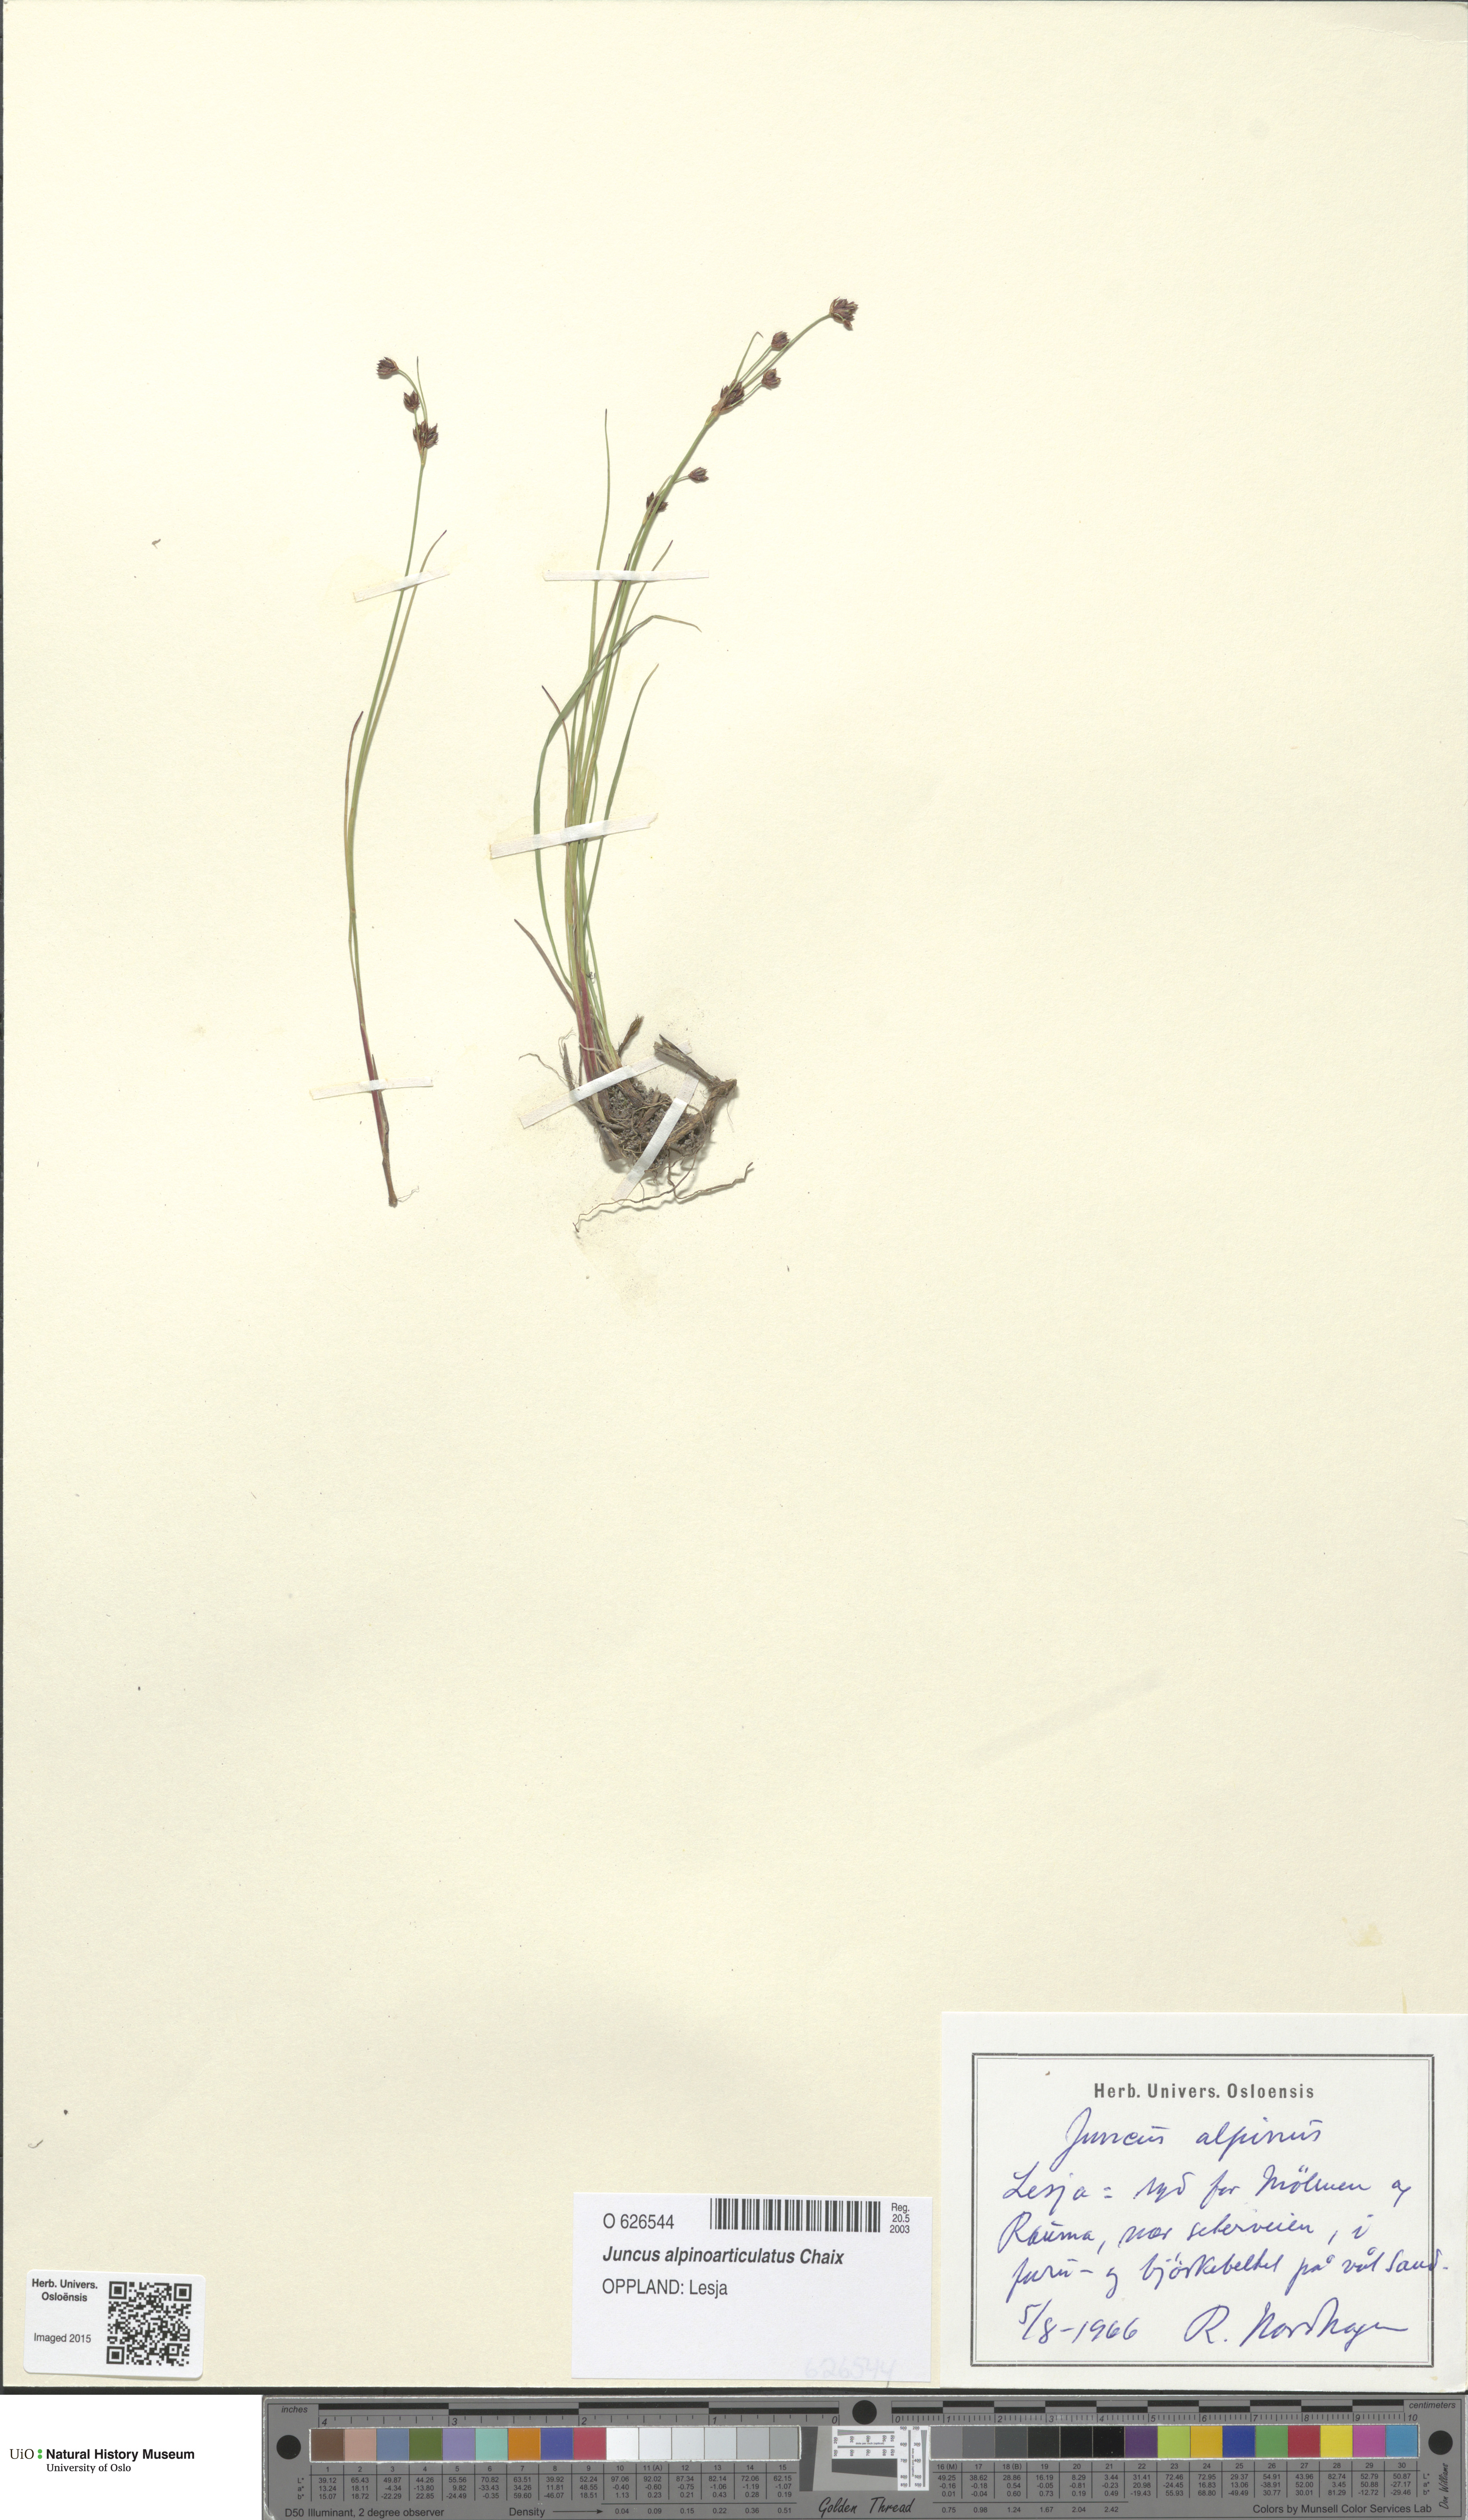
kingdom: Plantae
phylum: Tracheophyta
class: Liliopsida
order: Poales
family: Juncaceae
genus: Juncus
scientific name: Juncus alpinoarticulatus
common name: Alpine rush
